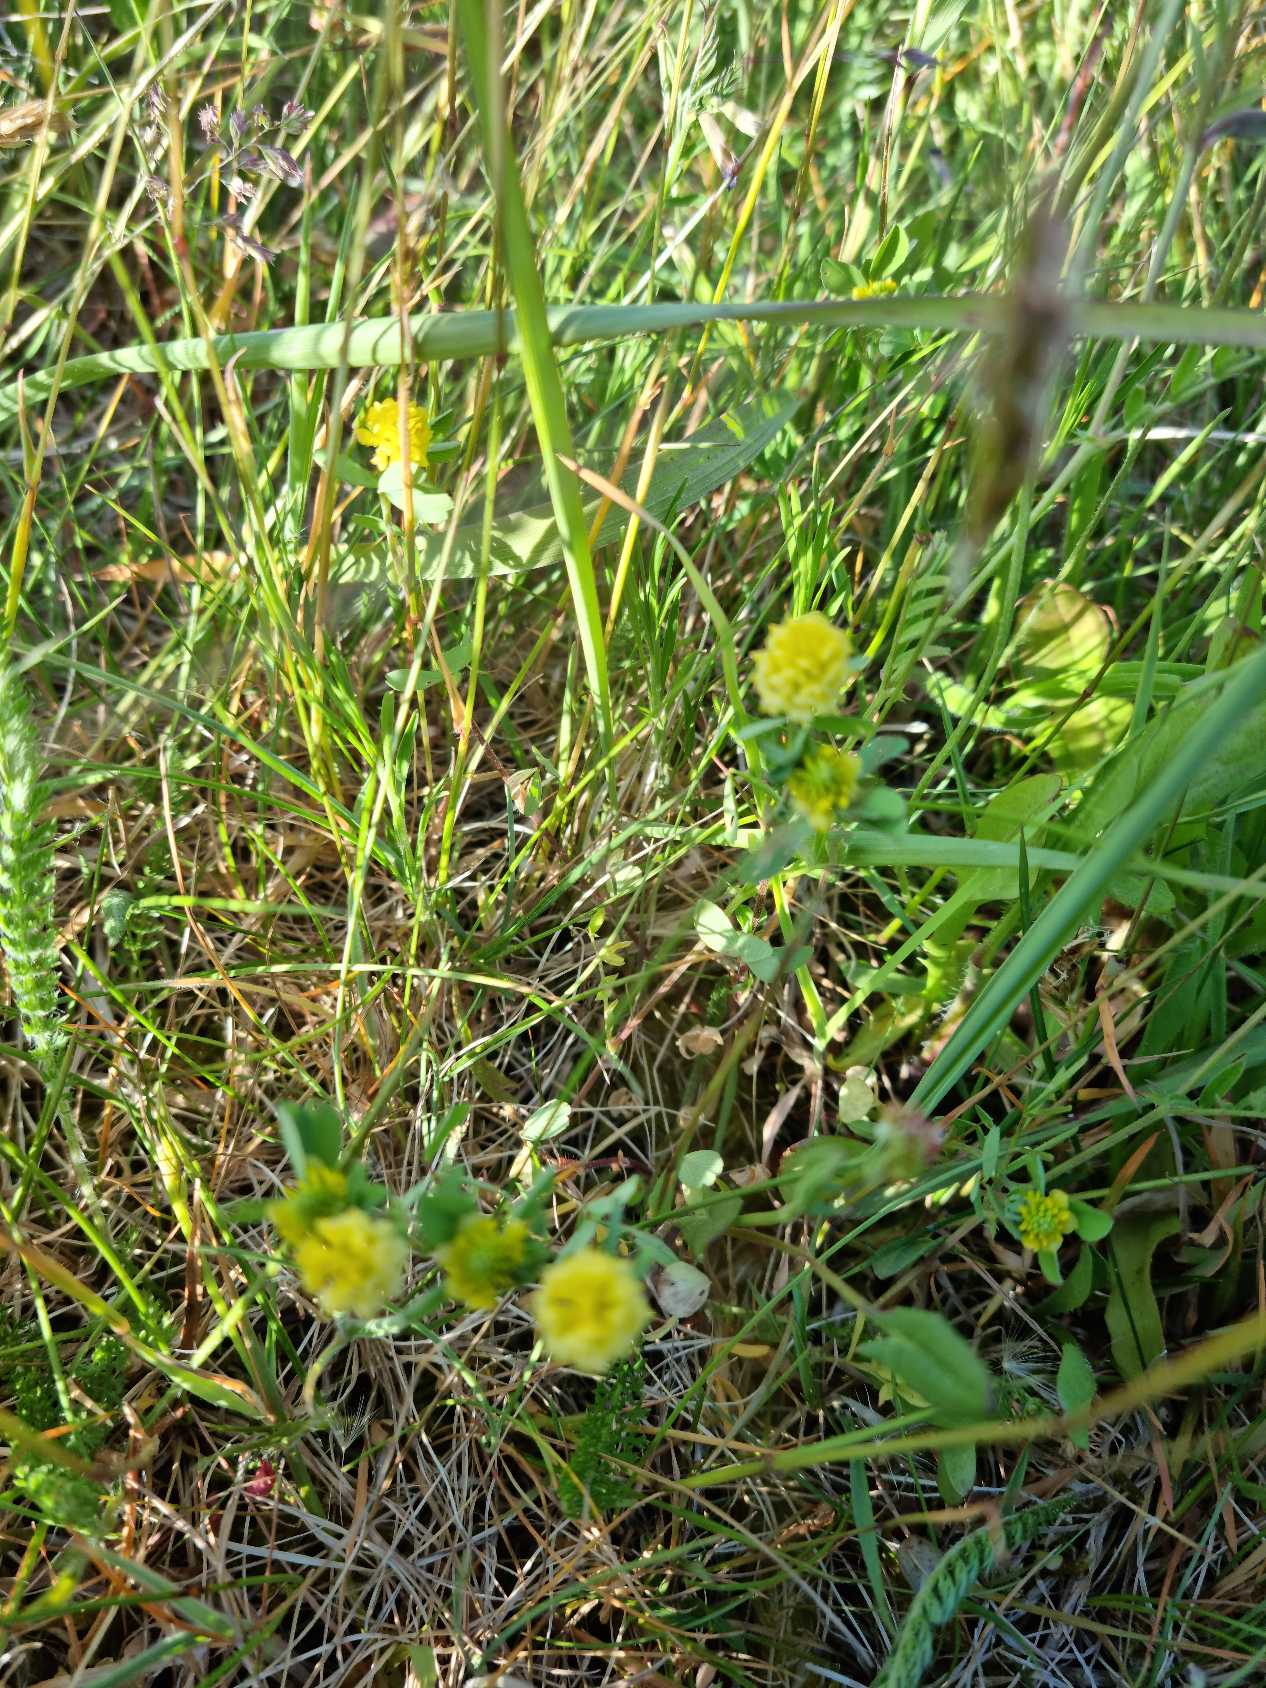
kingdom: Plantae
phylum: Tracheophyta
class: Magnoliopsida
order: Fabales
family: Fabaceae
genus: Trifolium
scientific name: Trifolium campestre
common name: Gul kløver
